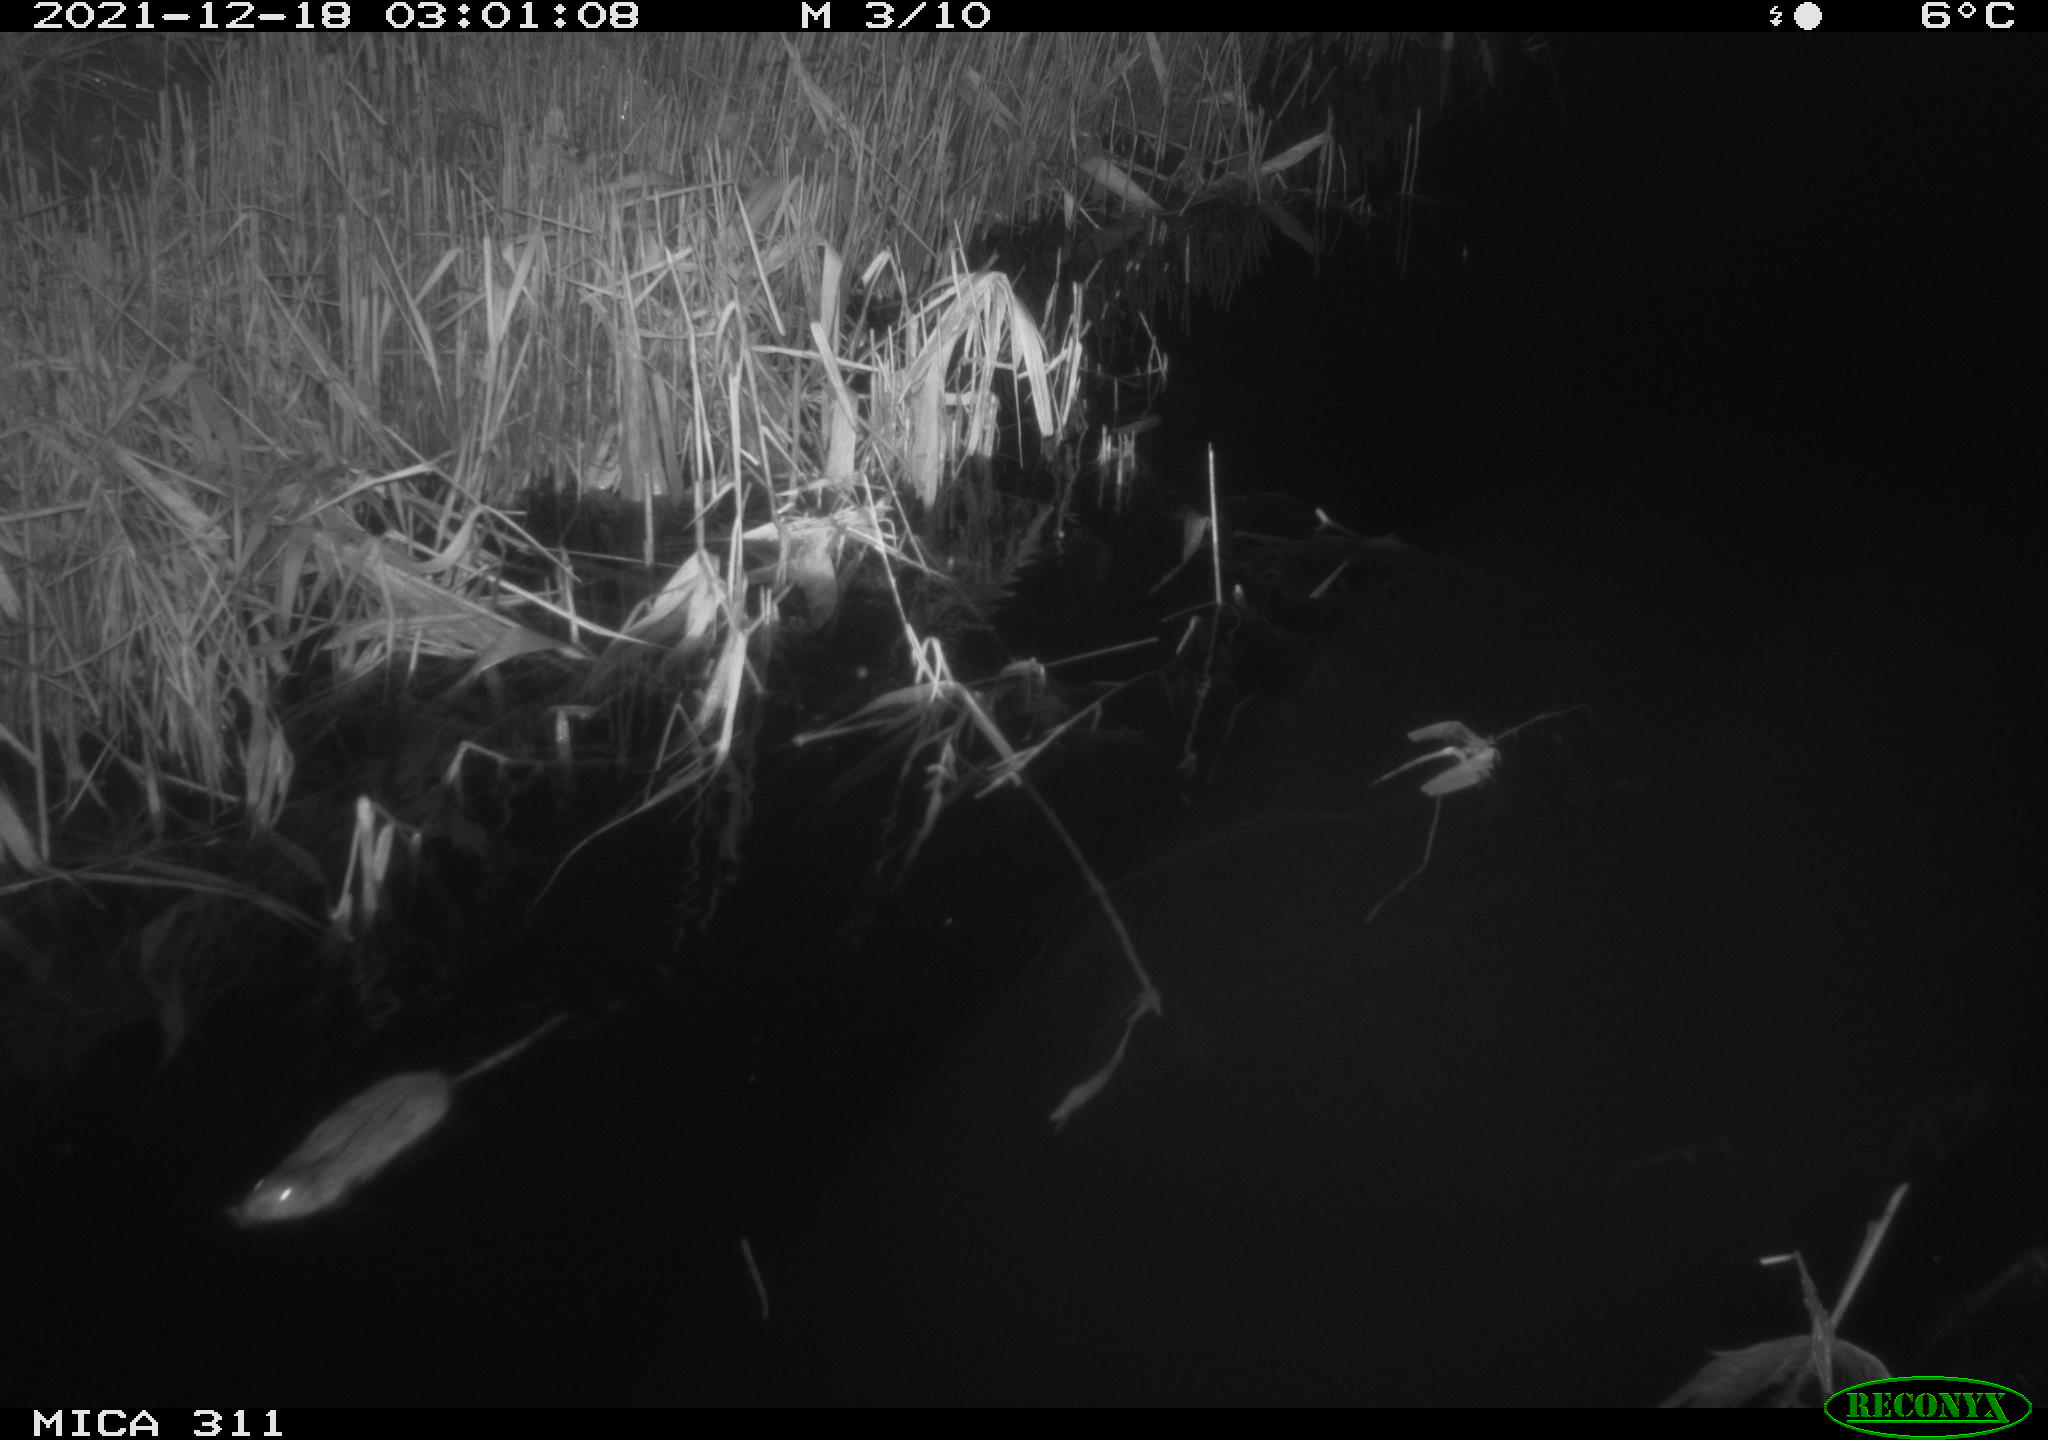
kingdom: Animalia
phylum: Chordata
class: Mammalia
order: Rodentia
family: Muridae
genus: Rattus
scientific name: Rattus norvegicus
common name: Brown rat
